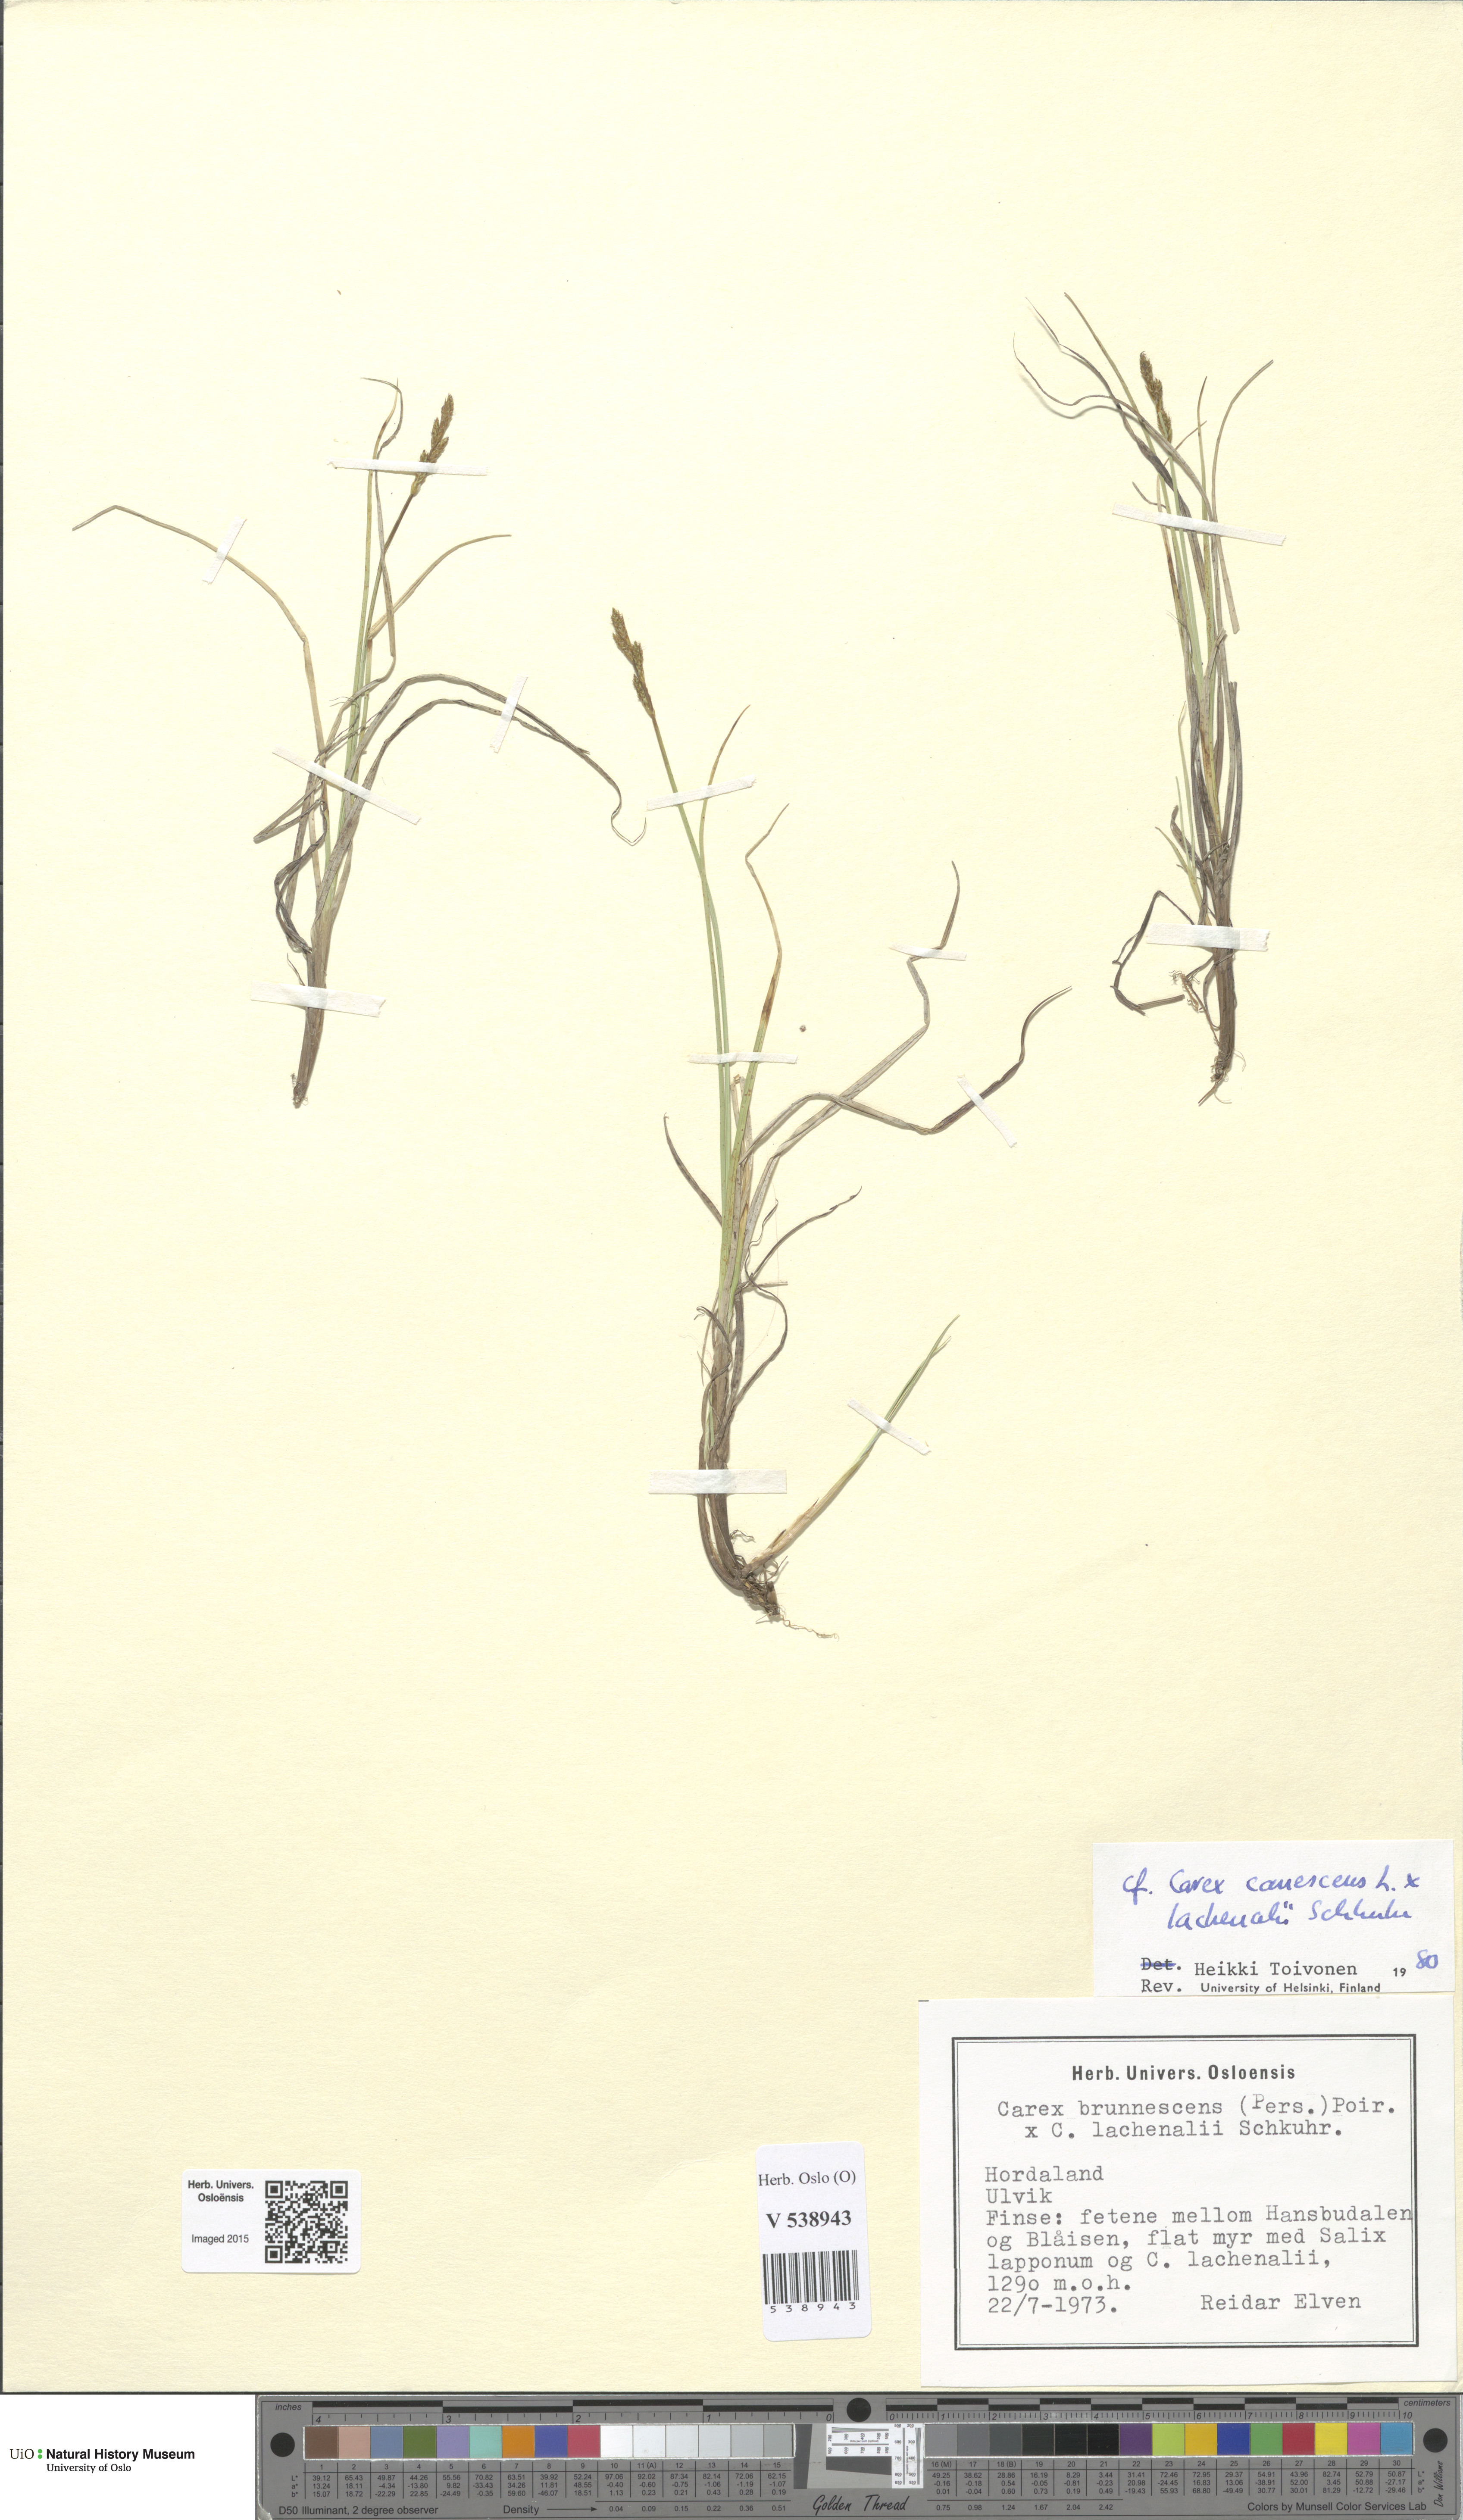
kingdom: Plantae
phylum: Tracheophyta
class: Liliopsida
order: Poales
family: Cyperaceae
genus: Carex
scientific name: Carex
